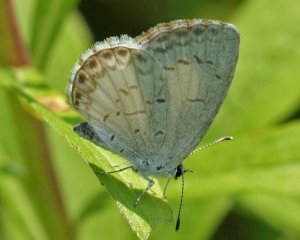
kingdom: Animalia
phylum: Arthropoda
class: Insecta
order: Lepidoptera
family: Lycaenidae
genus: Cyaniris
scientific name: Cyaniris neglecta
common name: Summer Azure
